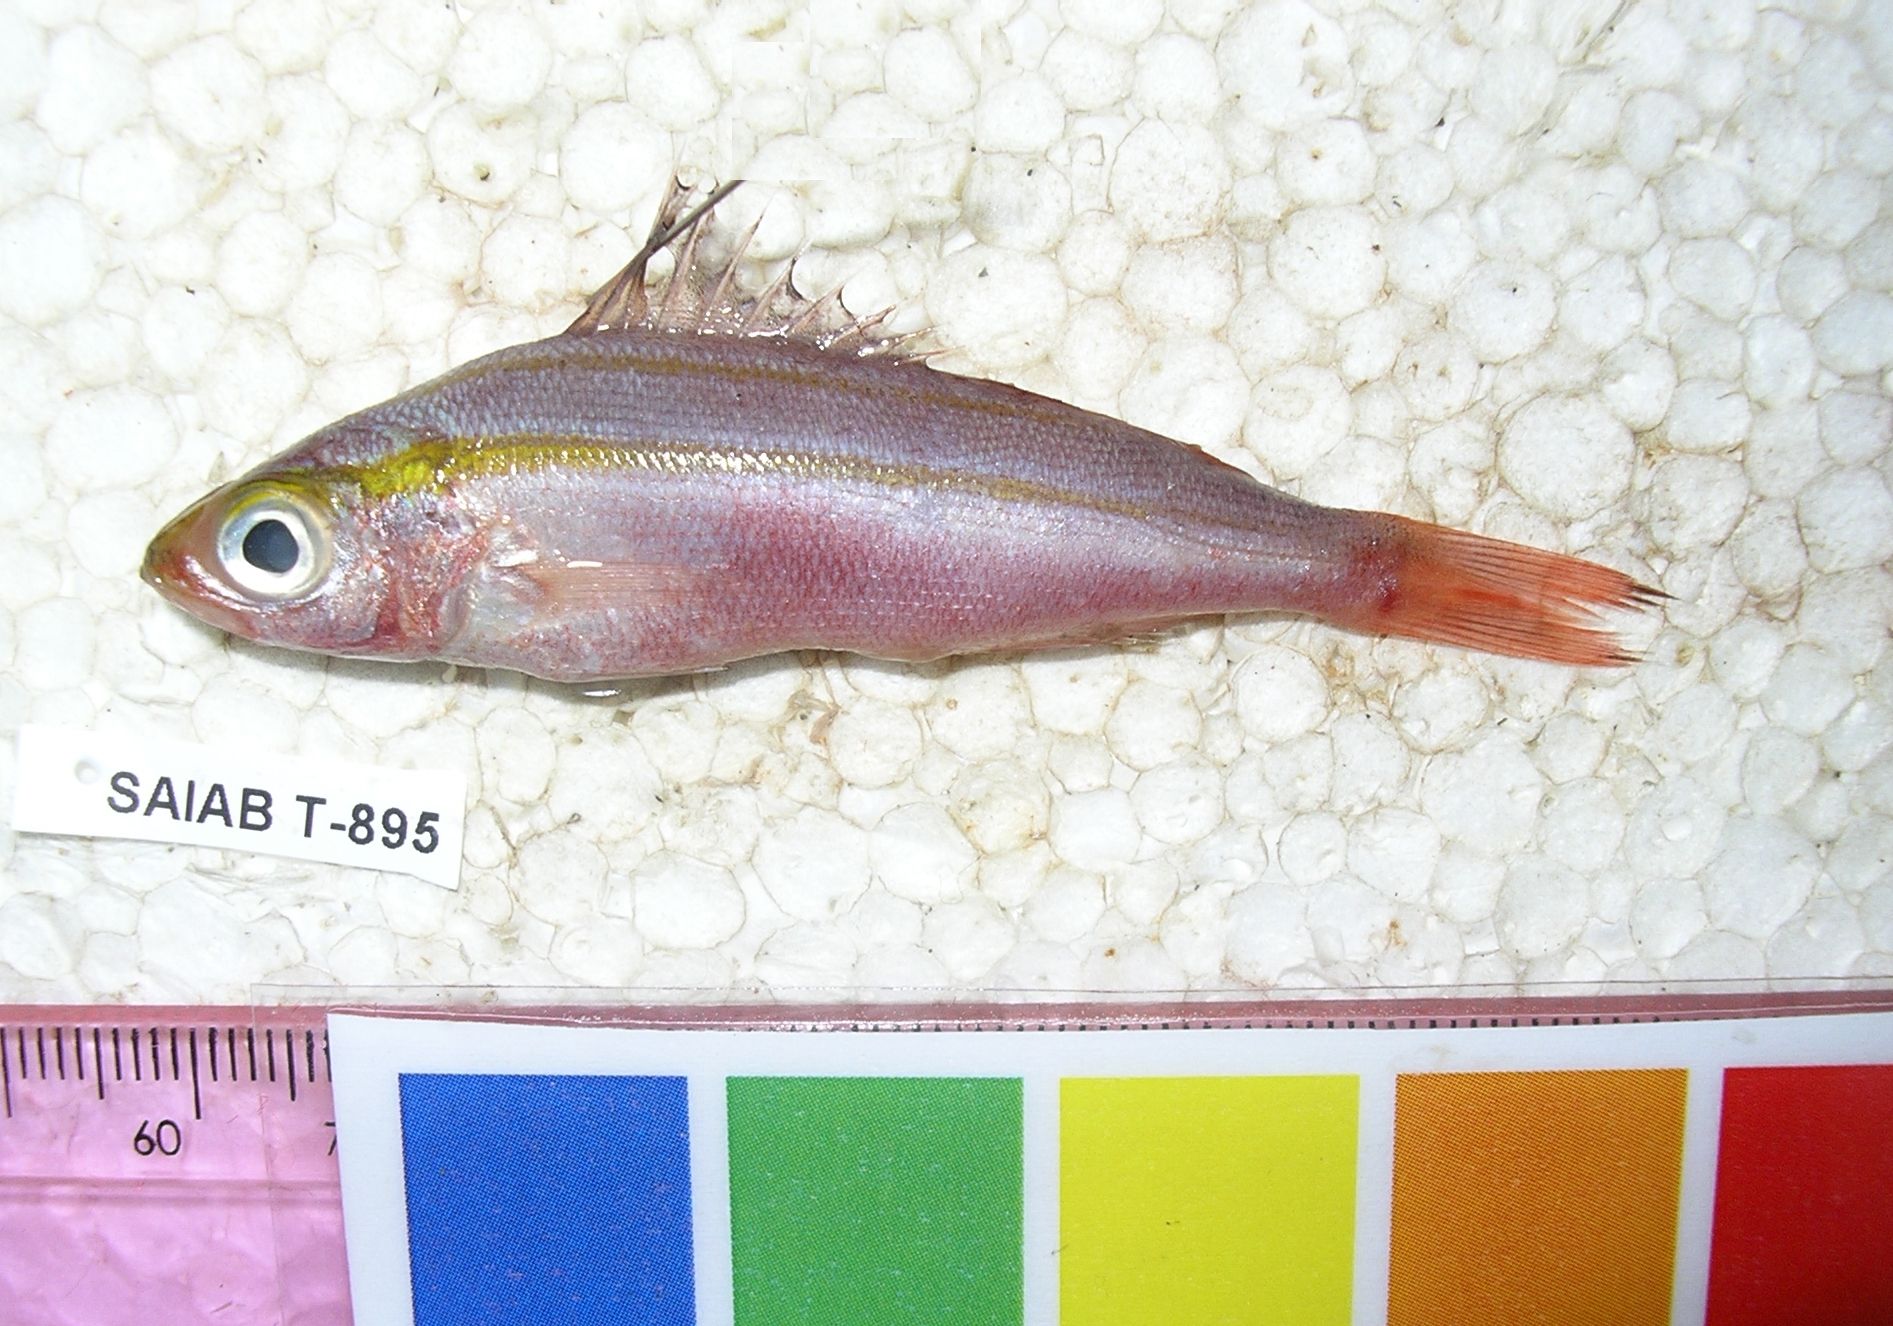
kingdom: Animalia
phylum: Chordata
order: Perciformes
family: Caesionidae
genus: Pterocaesio
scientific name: Pterocaesio marri
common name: Marr's fusilier
